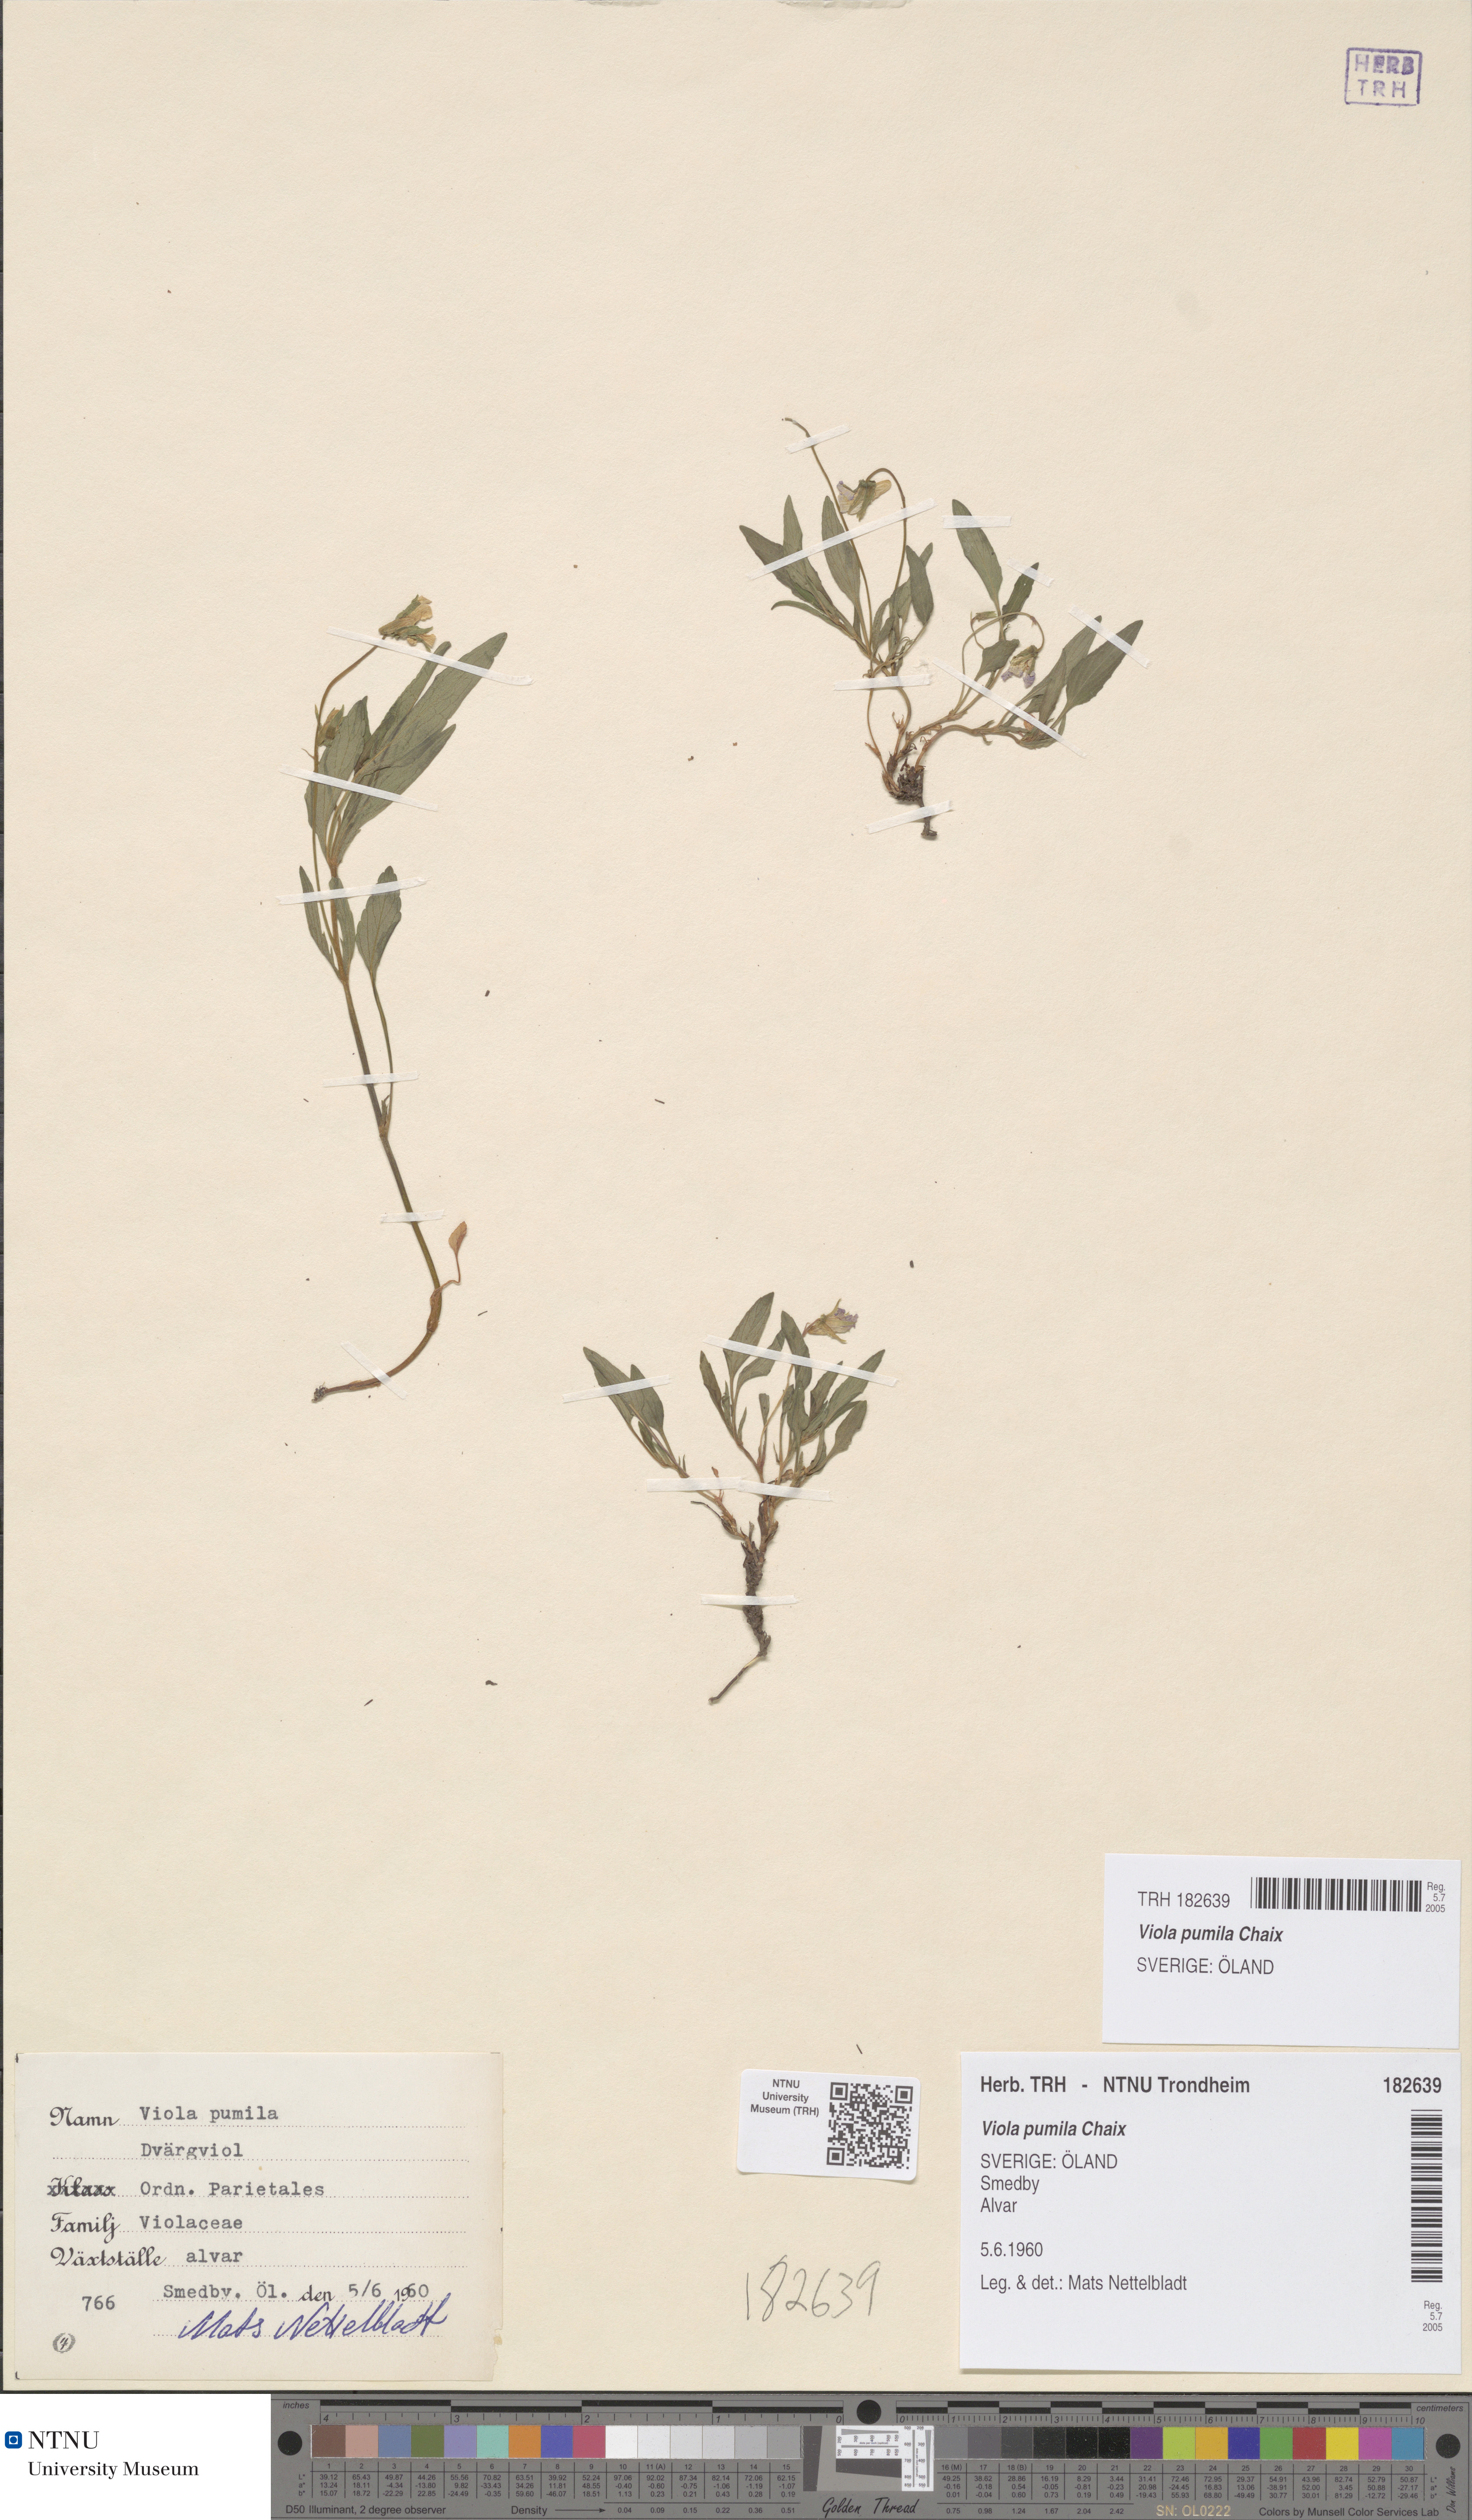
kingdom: Plantae
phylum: Tracheophyta
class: Magnoliopsida
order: Malpighiales
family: Violaceae
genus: Viola
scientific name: Viola pumila
